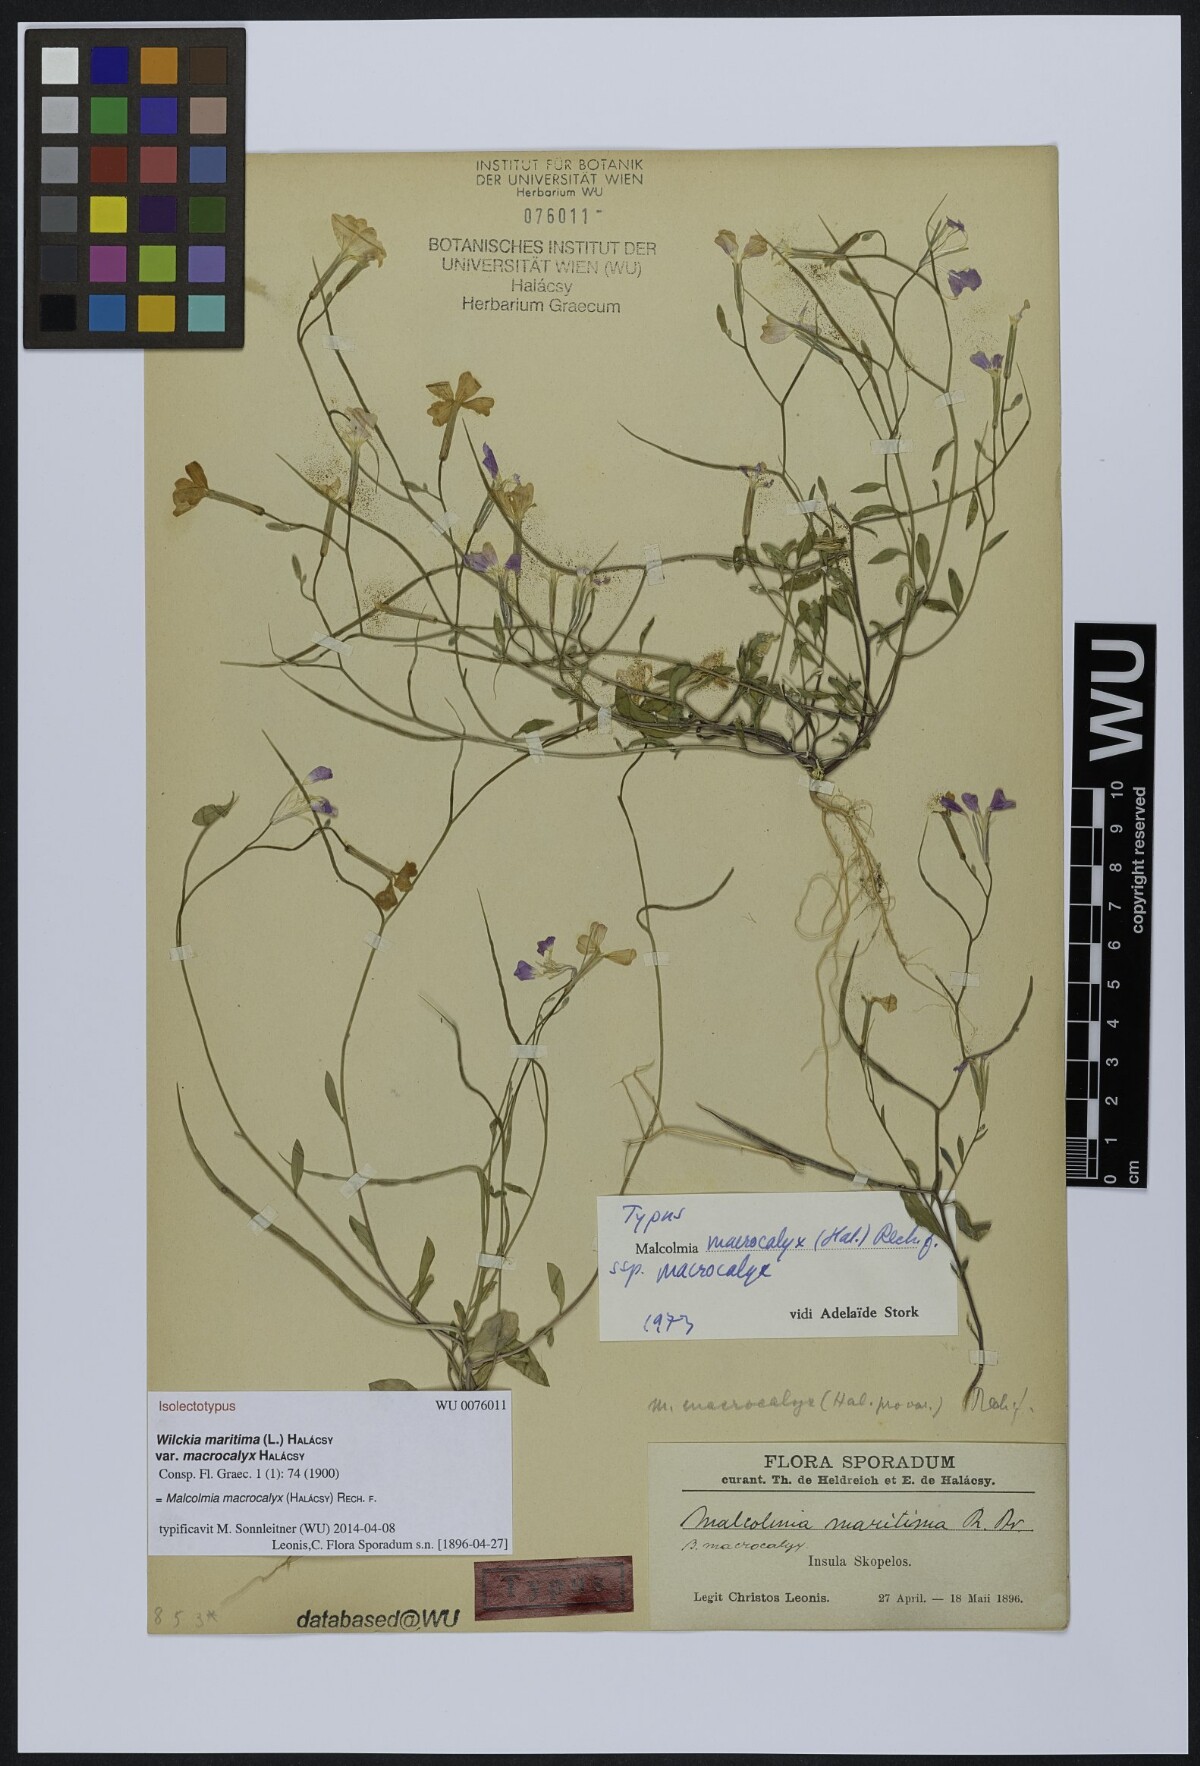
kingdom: Plantae
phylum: Tracheophyta
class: Magnoliopsida
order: Brassicales
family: Brassicaceae
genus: Malcolmia
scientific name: Malcolmia macrocalyx
